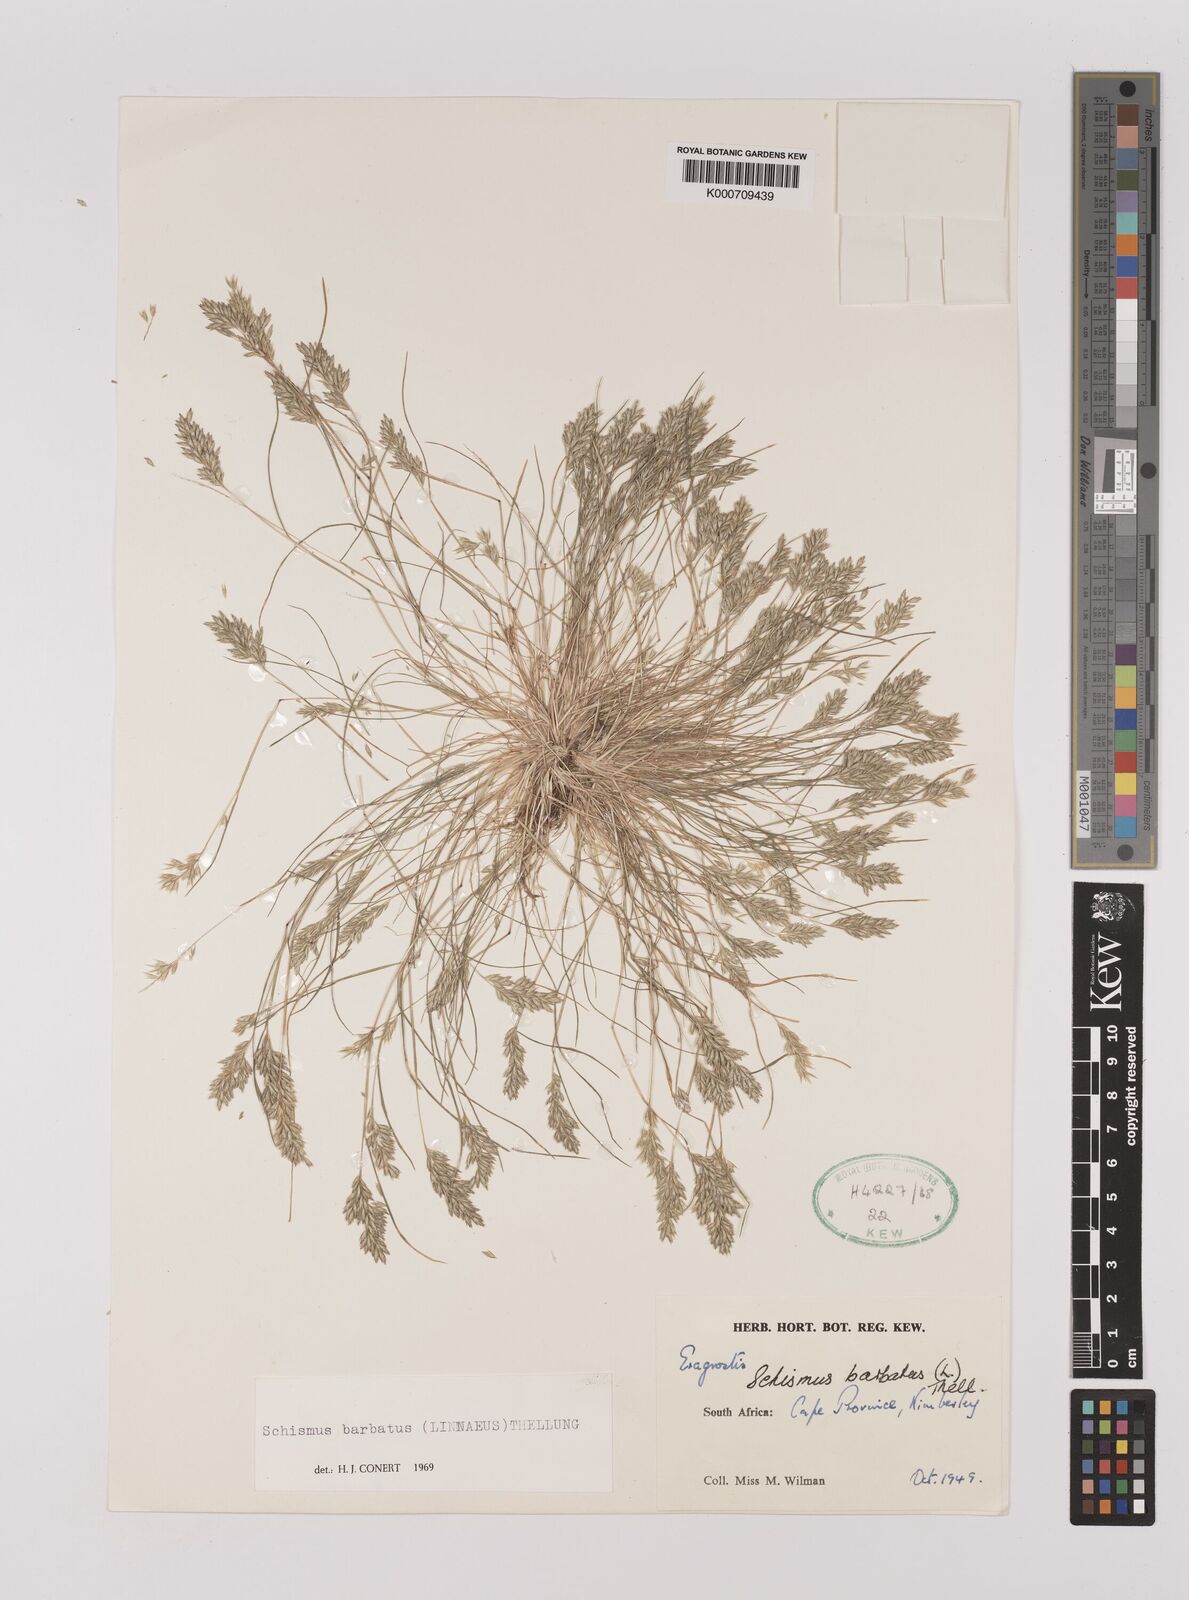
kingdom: Plantae
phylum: Tracheophyta
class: Liliopsida
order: Poales
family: Poaceae
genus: Schismus
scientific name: Schismus barbatus
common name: Kelch-grass
